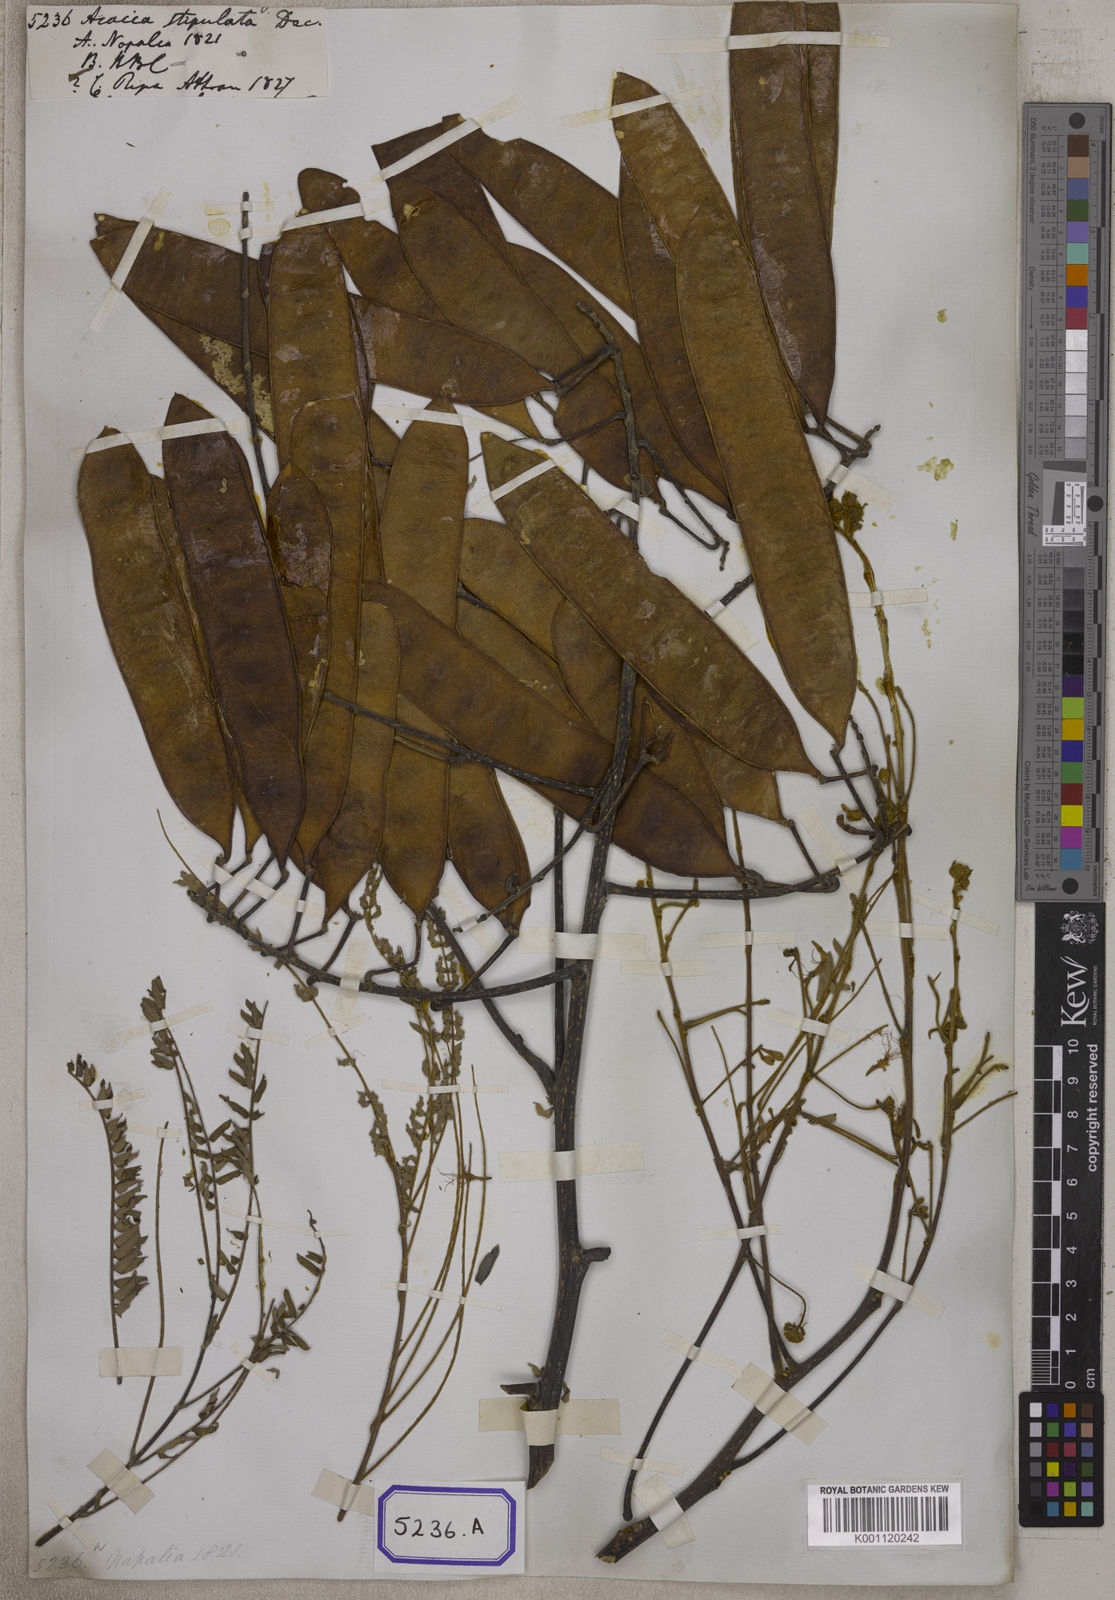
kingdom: Plantae
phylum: Tracheophyta
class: Magnoliopsida
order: Fabales
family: Fabaceae
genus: Albizia
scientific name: Albizia chinensis
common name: Chinese albizia
